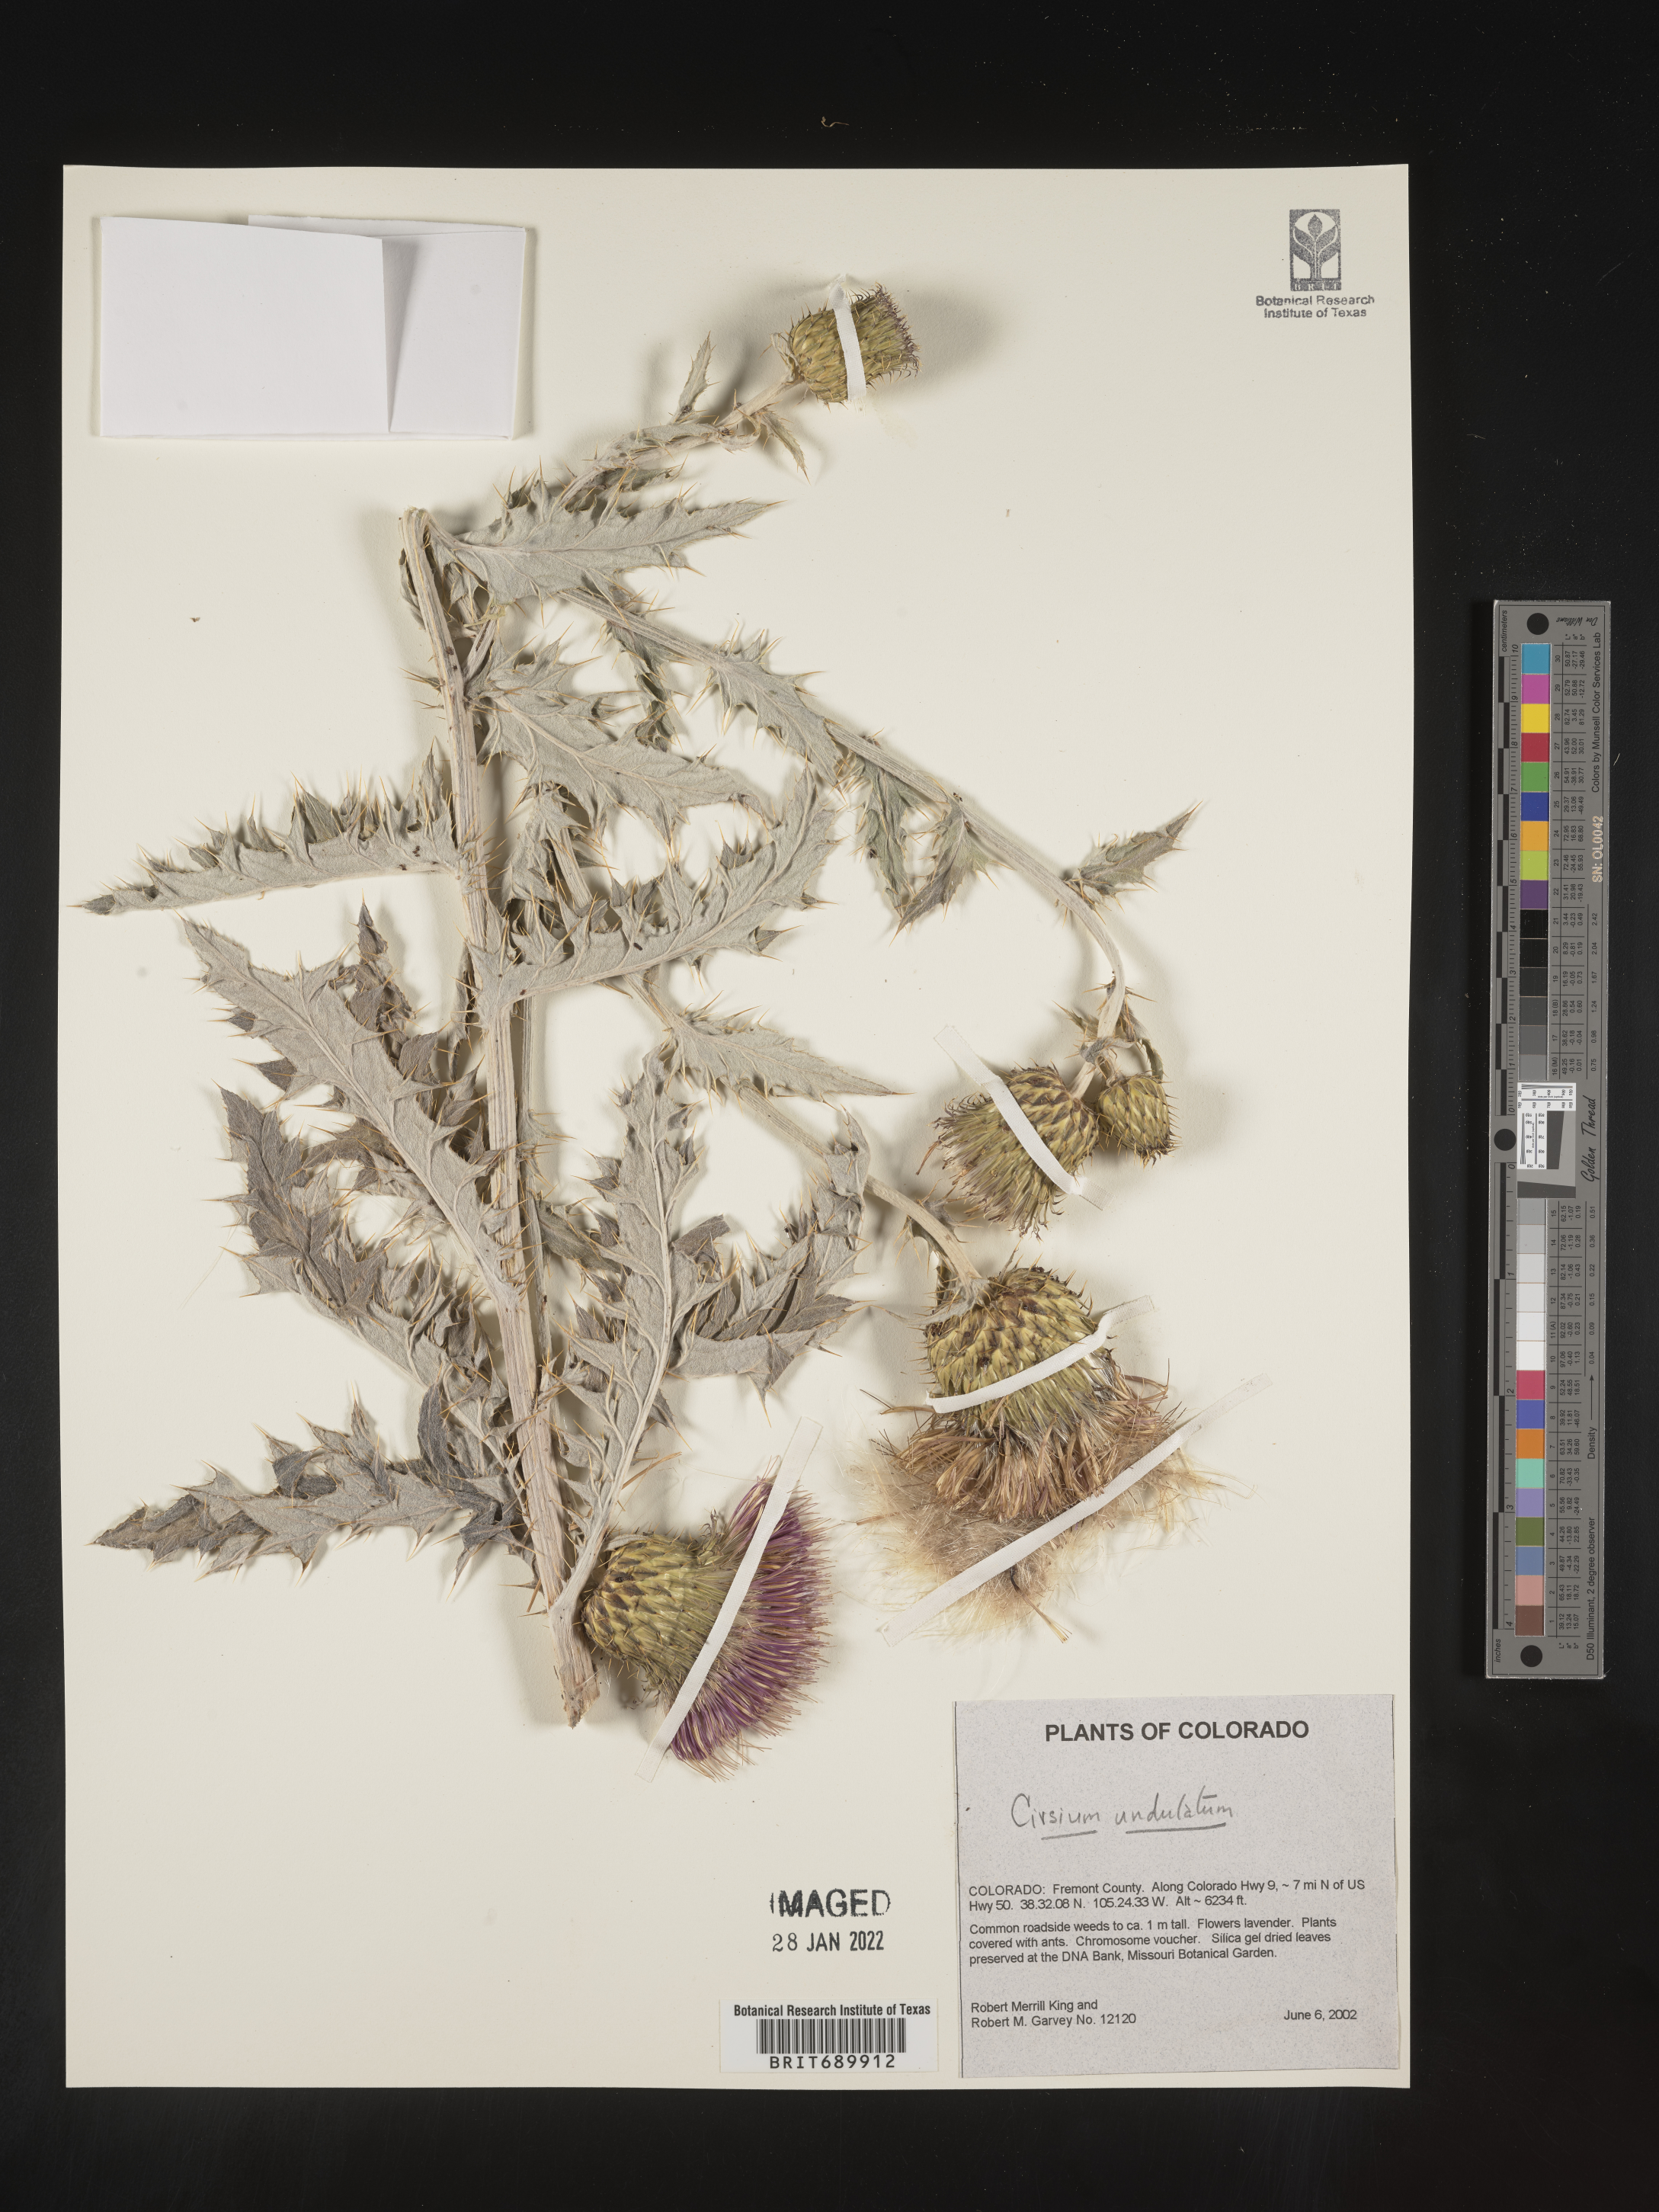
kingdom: Plantae
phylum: Tracheophyta
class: Magnoliopsida
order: Asterales
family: Asteraceae
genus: Cirsium
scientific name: Cirsium undulatum
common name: Pasture thistle
